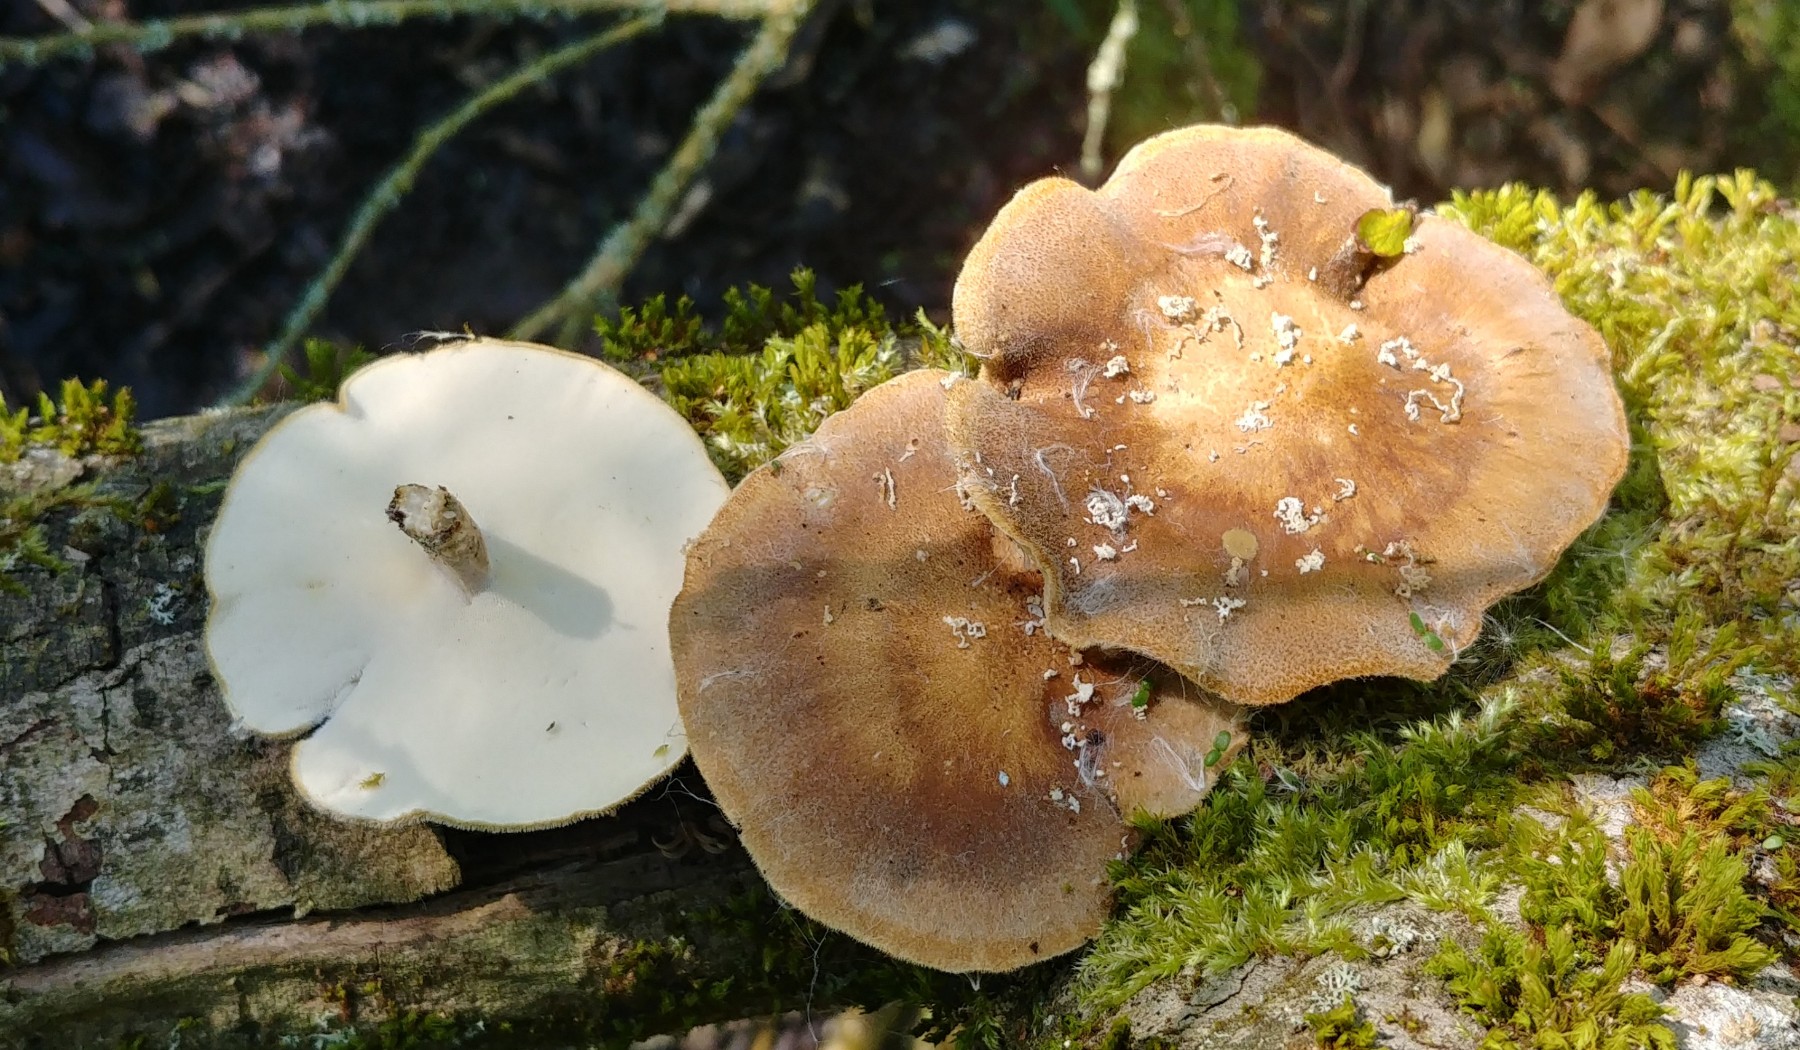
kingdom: Fungi
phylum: Basidiomycota
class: Agaricomycetes
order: Polyporales
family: Polyporaceae
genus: Lentinus
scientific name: Lentinus substrictus
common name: forårs-stilkporesvamp
